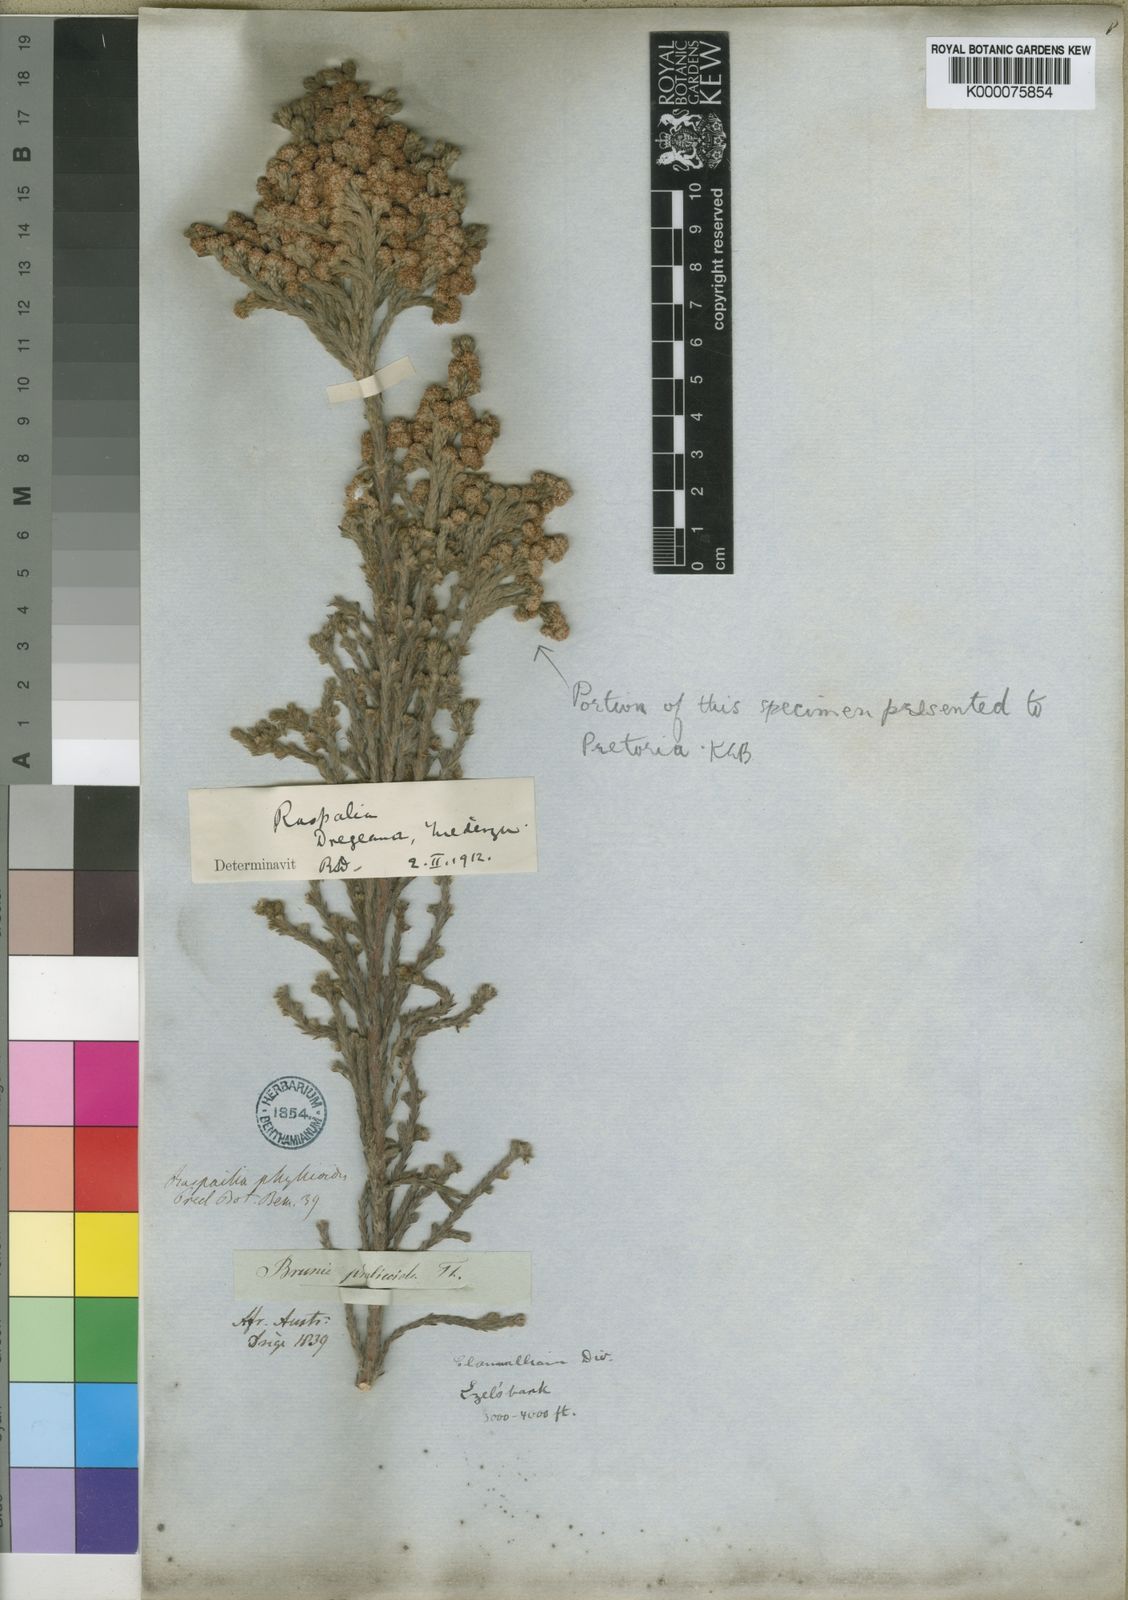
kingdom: Plantae
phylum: Tracheophyta
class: Magnoliopsida
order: Bruniales
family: Bruniaceae
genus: Brunia
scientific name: Brunia dregeana
